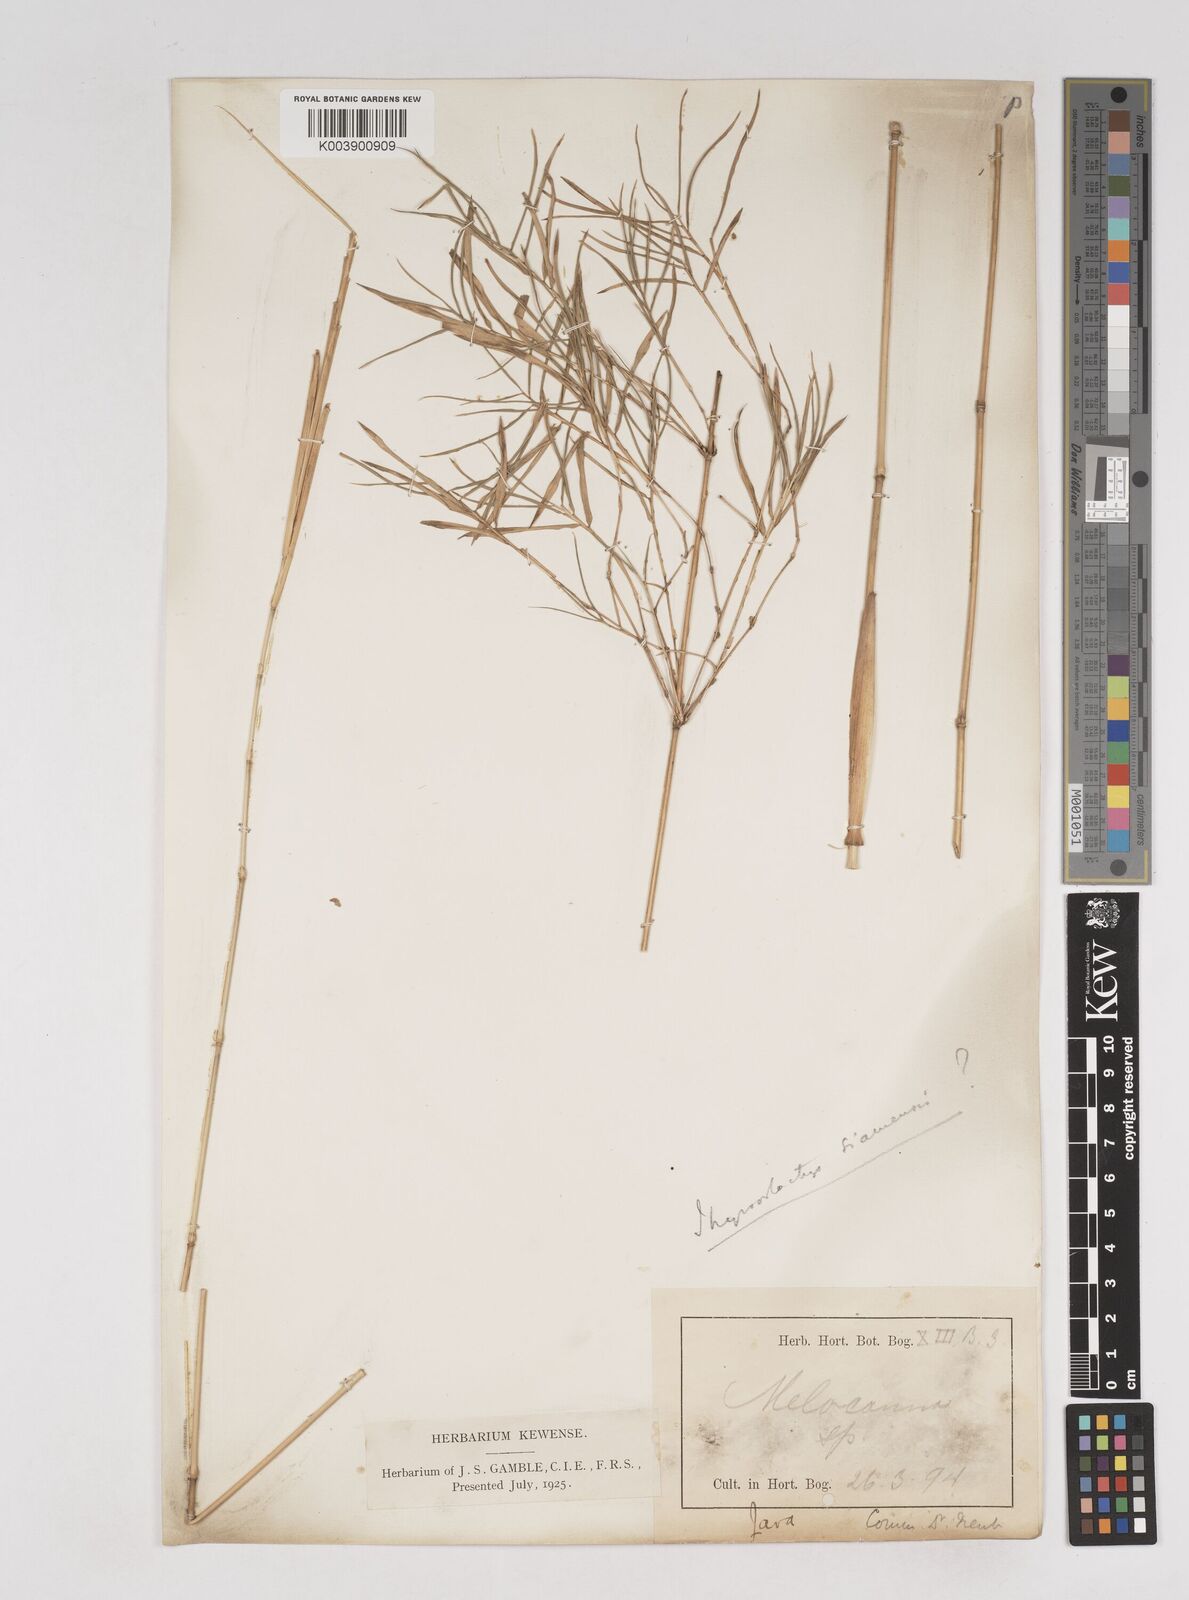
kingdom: Plantae
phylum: Tracheophyta
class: Liliopsida
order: Poales
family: Poaceae
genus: Thyrsostachys
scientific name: Thyrsostachys siamensis
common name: Thailand bamboo
